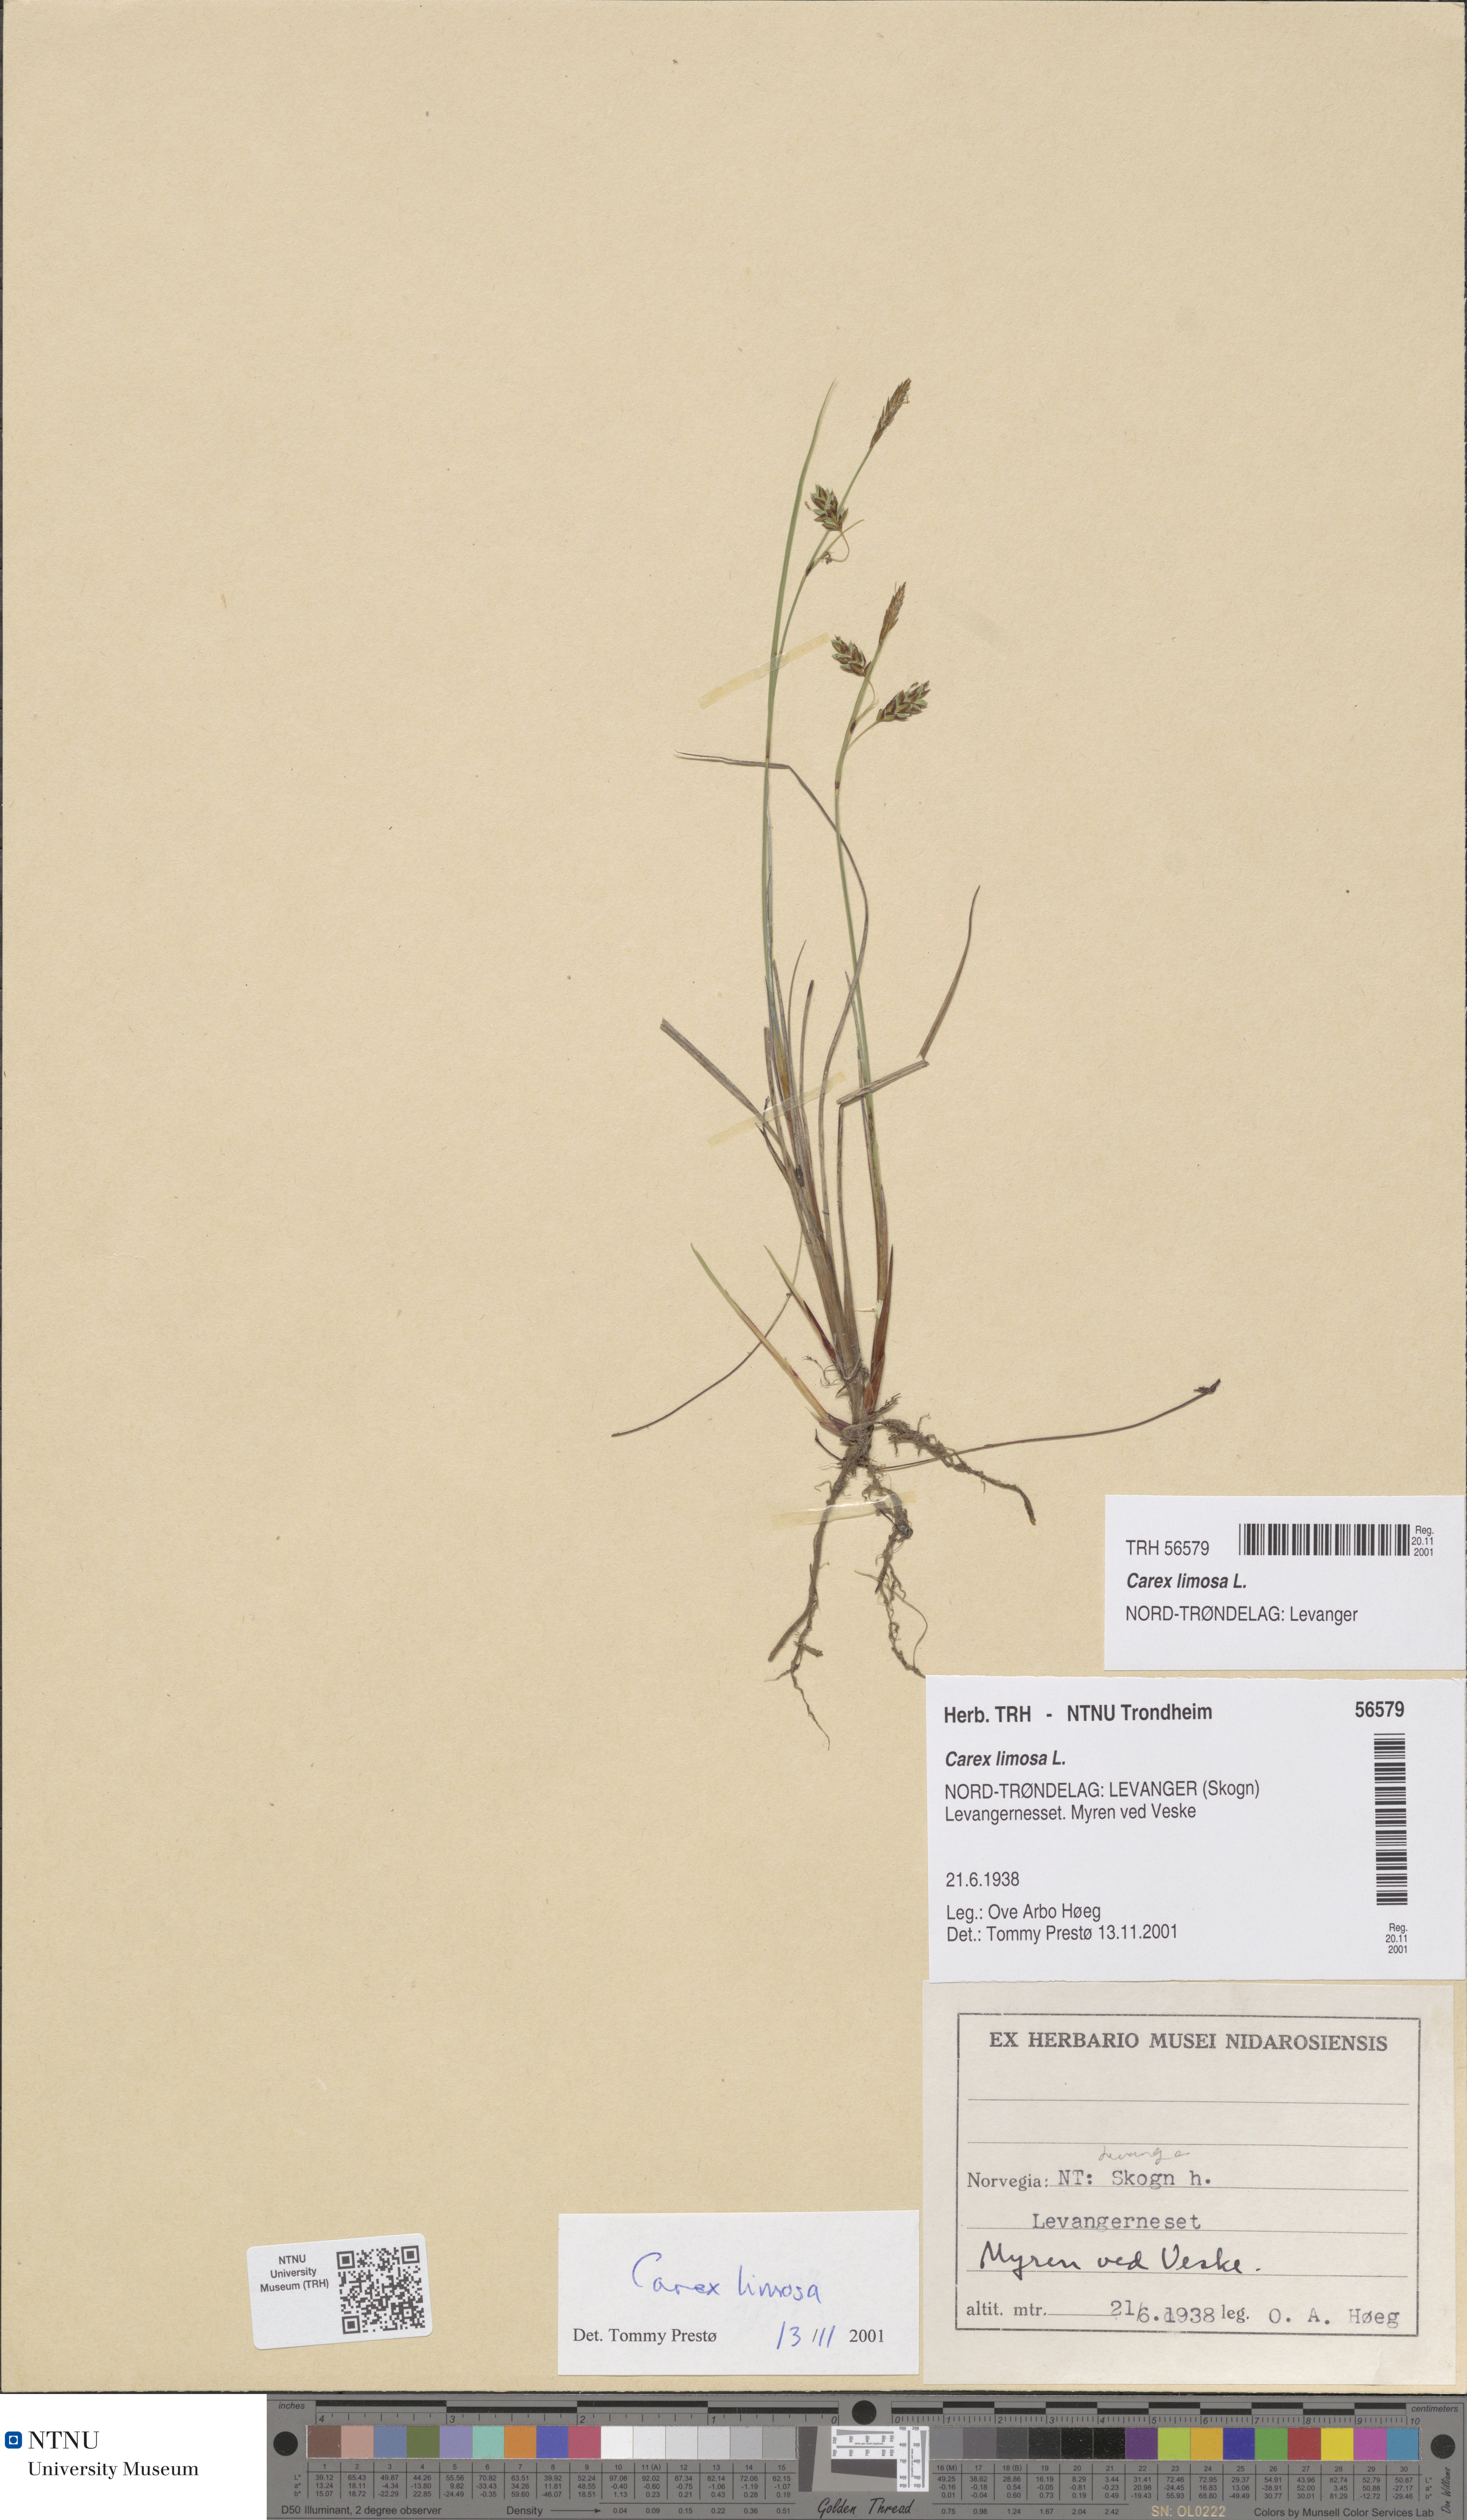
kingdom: Plantae
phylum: Tracheophyta
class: Liliopsida
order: Poales
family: Cyperaceae
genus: Carex
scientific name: Carex limosa
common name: Bog sedge
